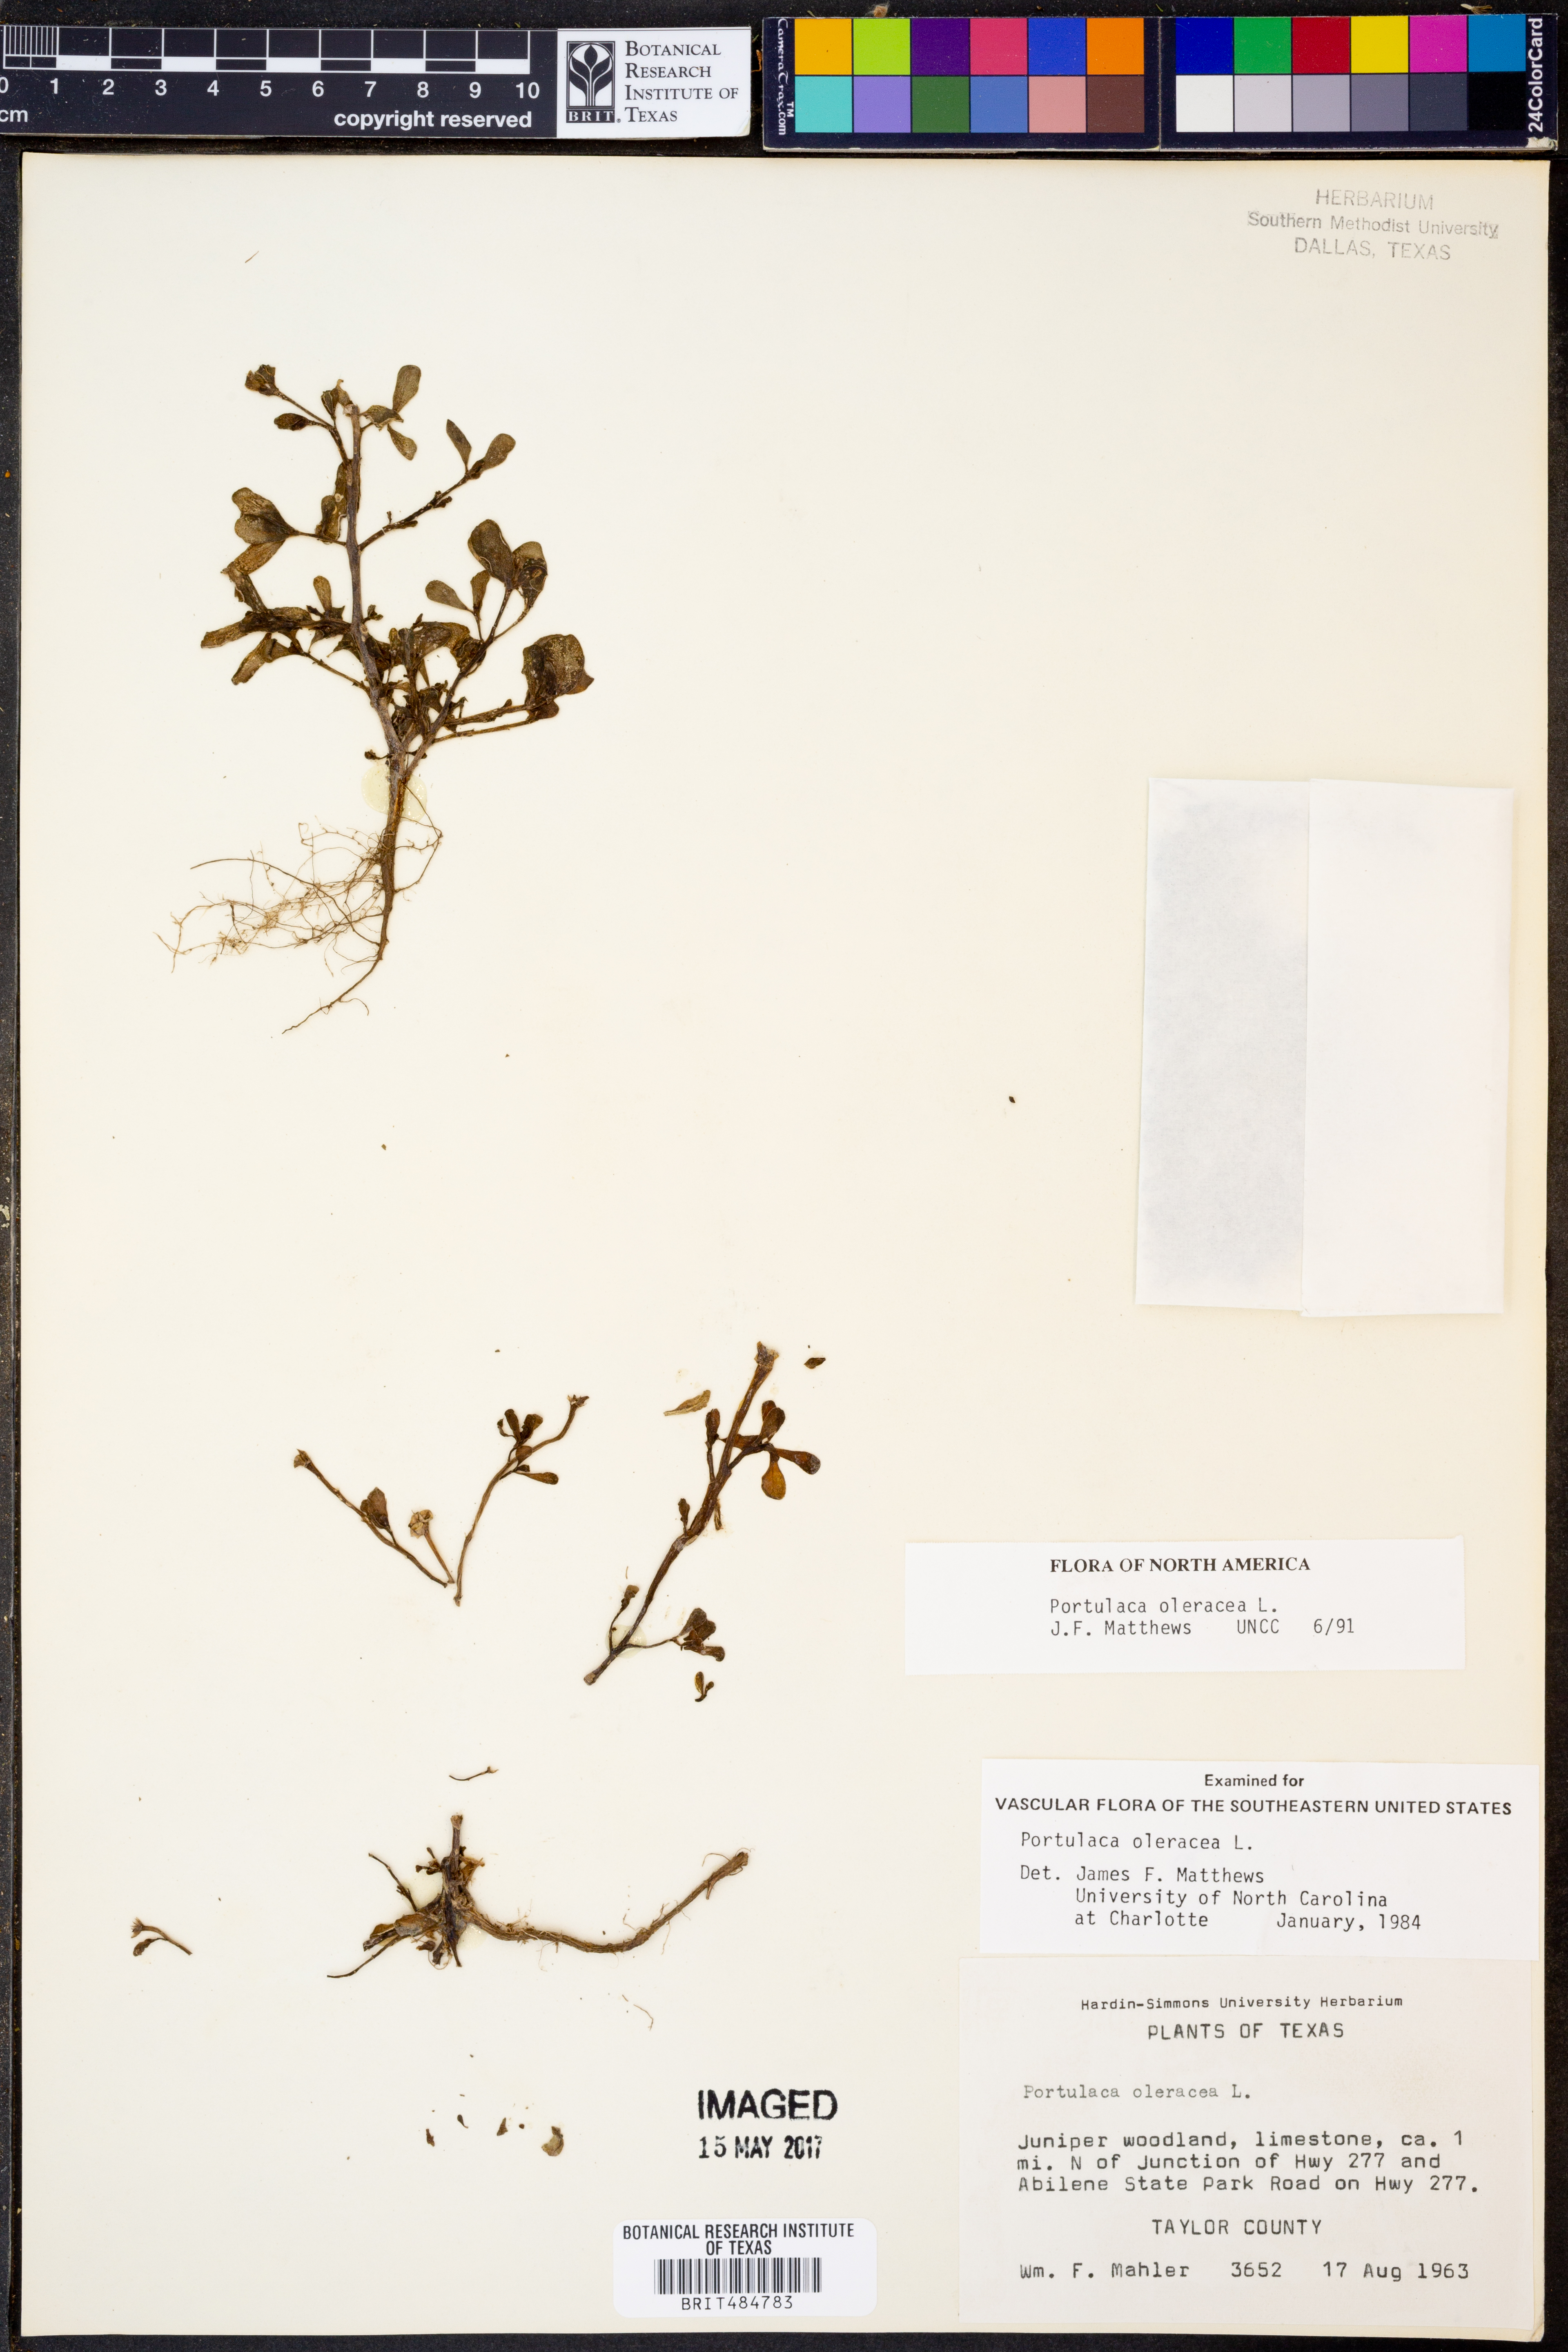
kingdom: Plantae
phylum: Tracheophyta
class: Magnoliopsida
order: Caryophyllales
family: Portulacaceae
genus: Portulaca
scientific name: Portulaca oleracea
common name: Common purslane
